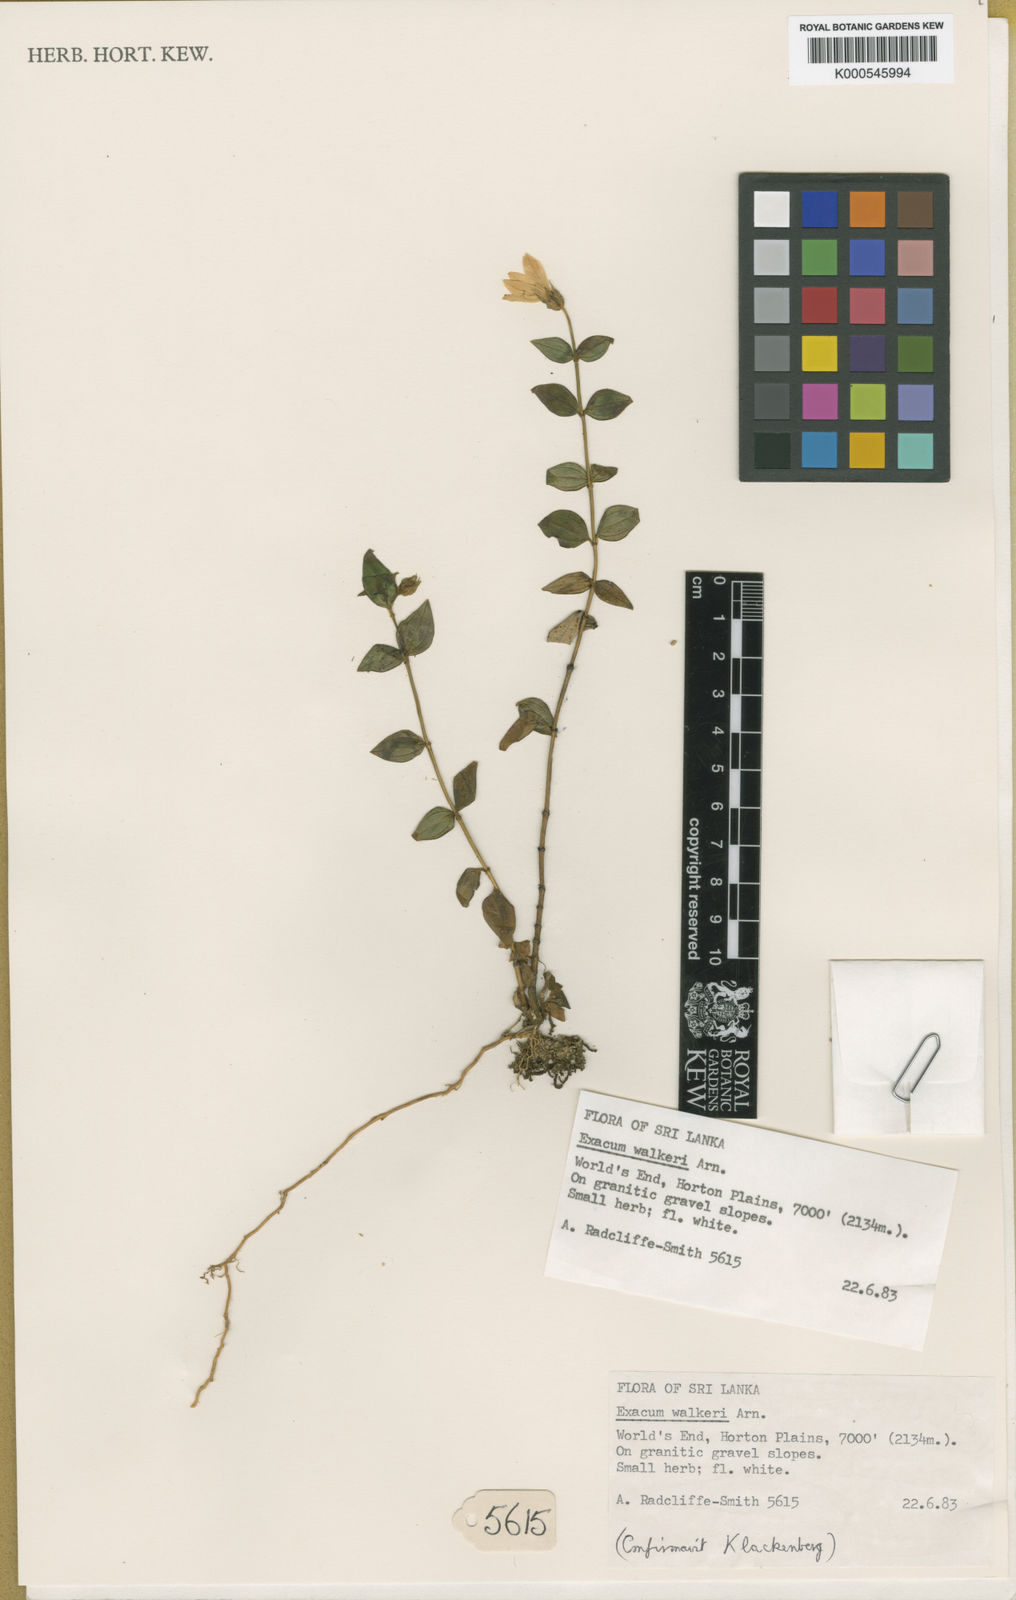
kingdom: Plantae
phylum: Tracheophyta
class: Magnoliopsida
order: Gentianales
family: Gentianaceae
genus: Exacum
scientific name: Exacum walkeri
